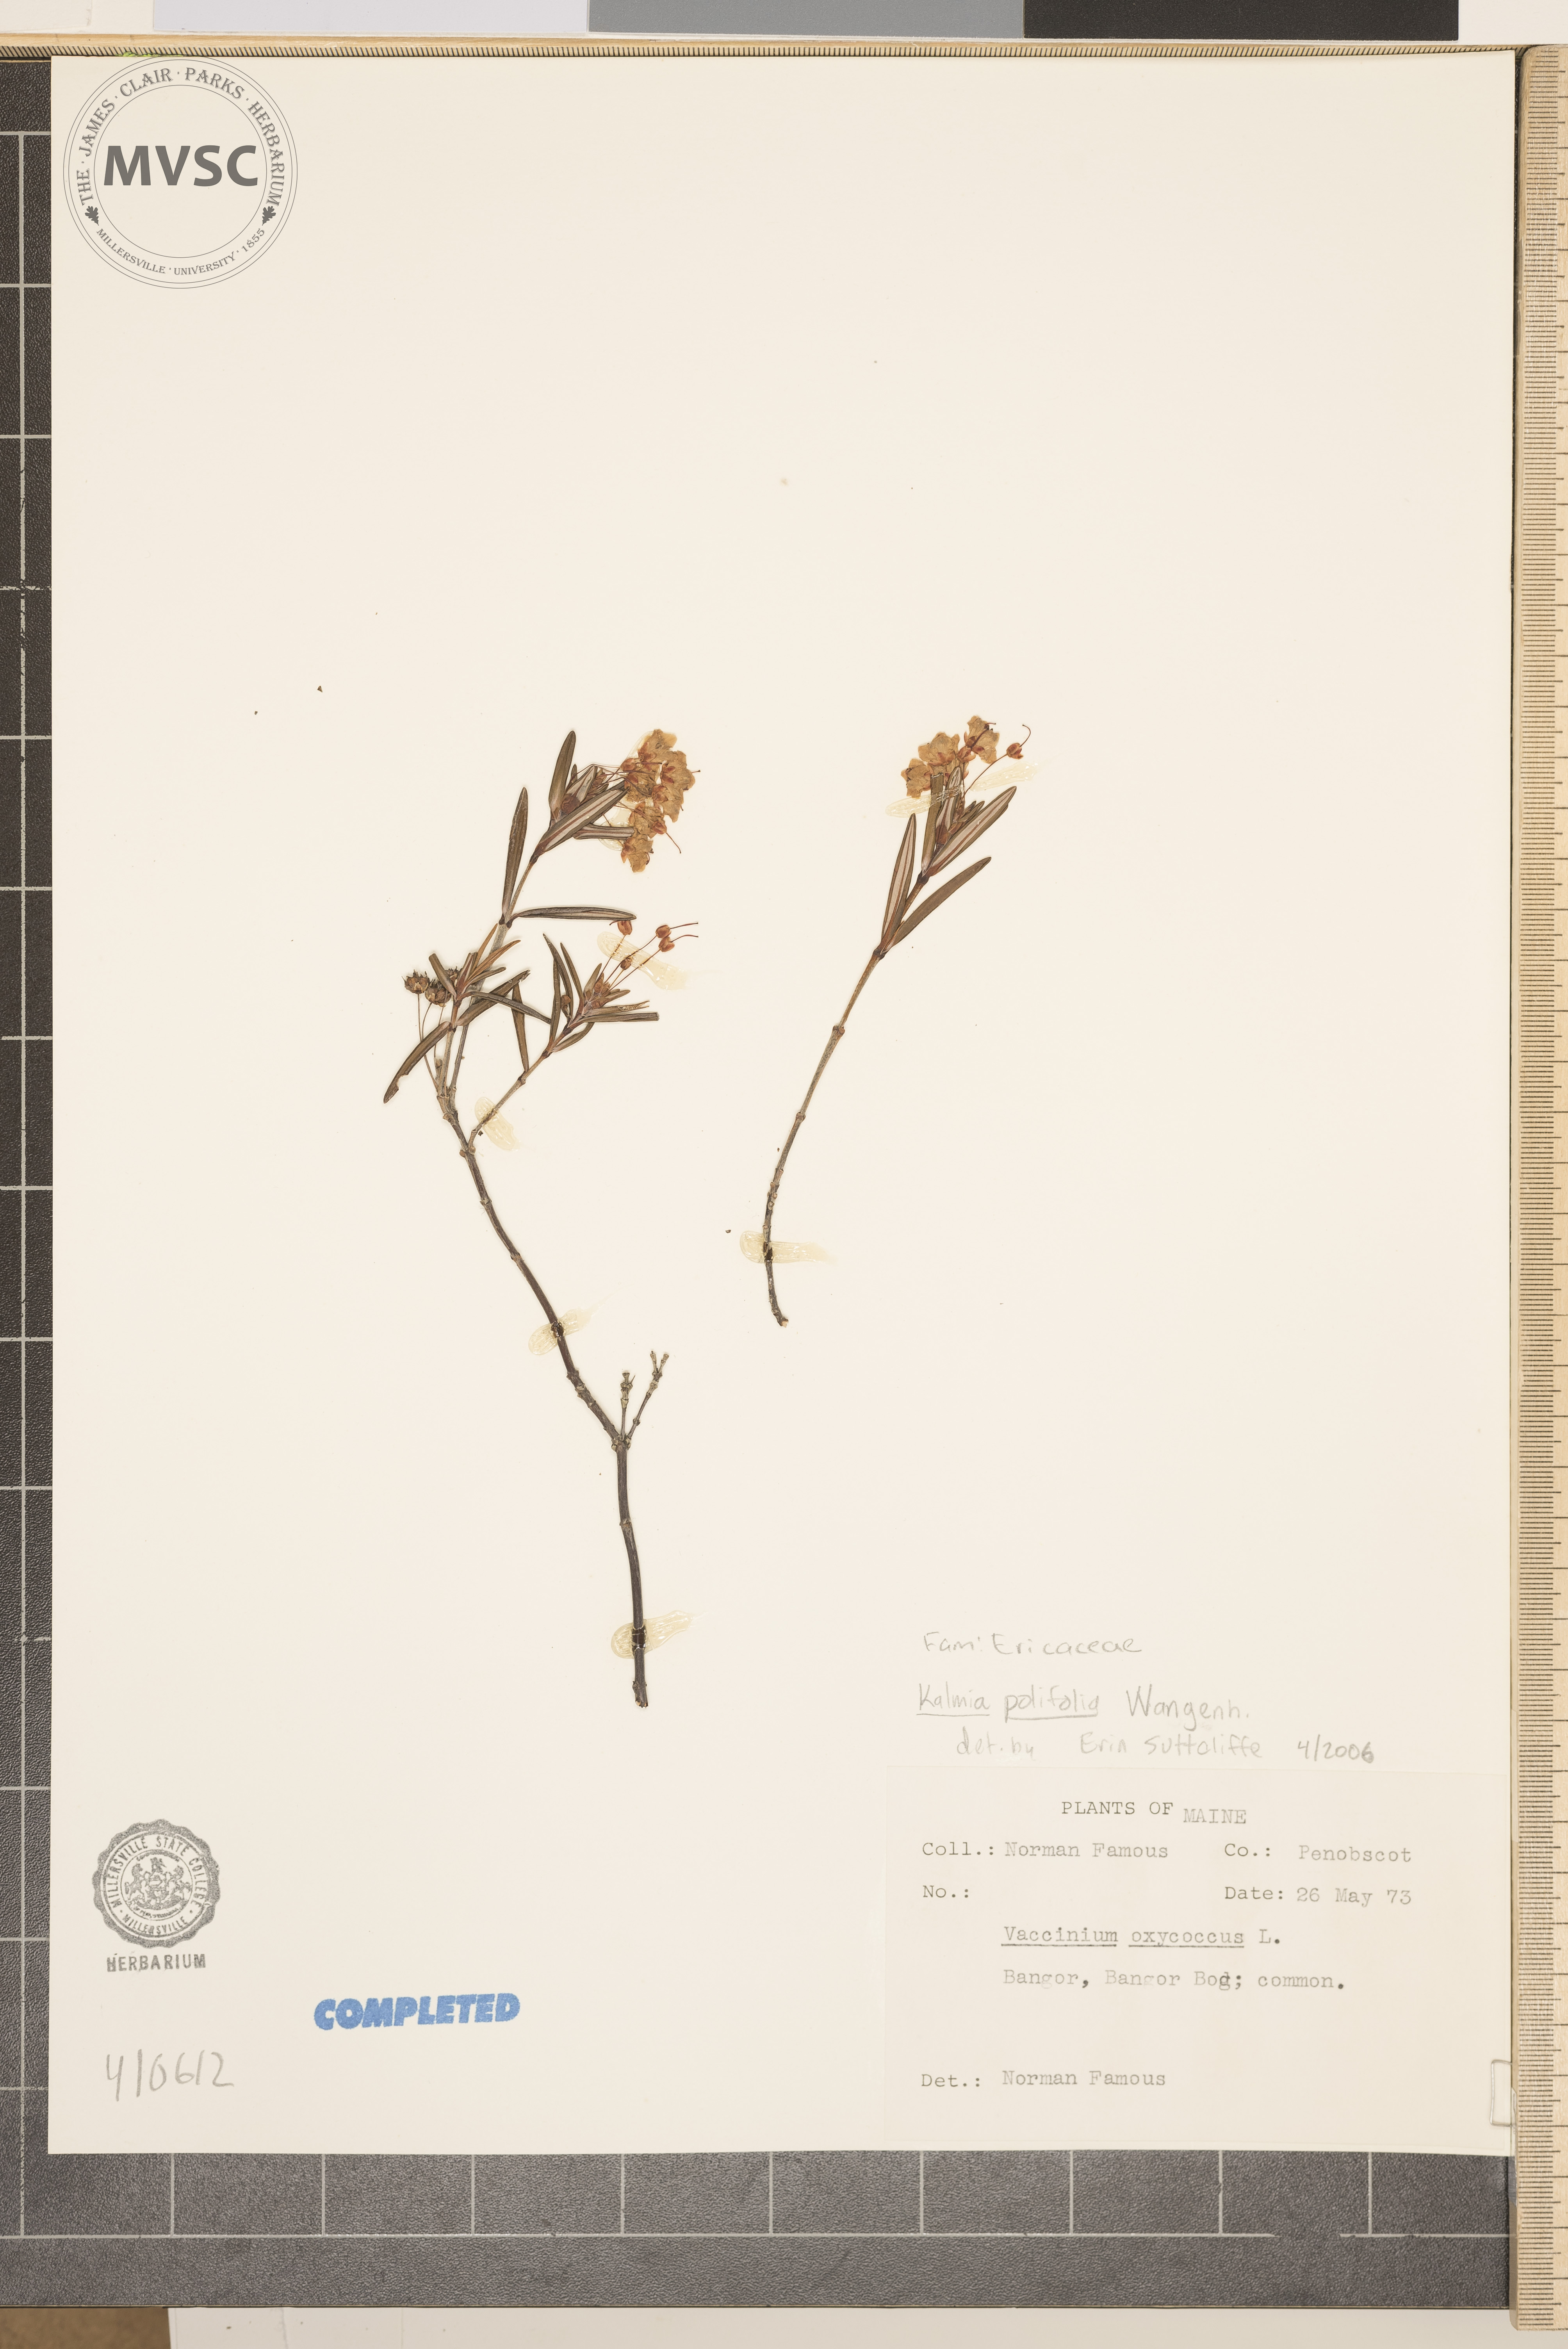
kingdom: Plantae
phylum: Tracheophyta
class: Magnoliopsida
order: Ericales
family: Ericaceae
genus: Kalmia
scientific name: Kalmia polifolia
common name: Bog-laurel
